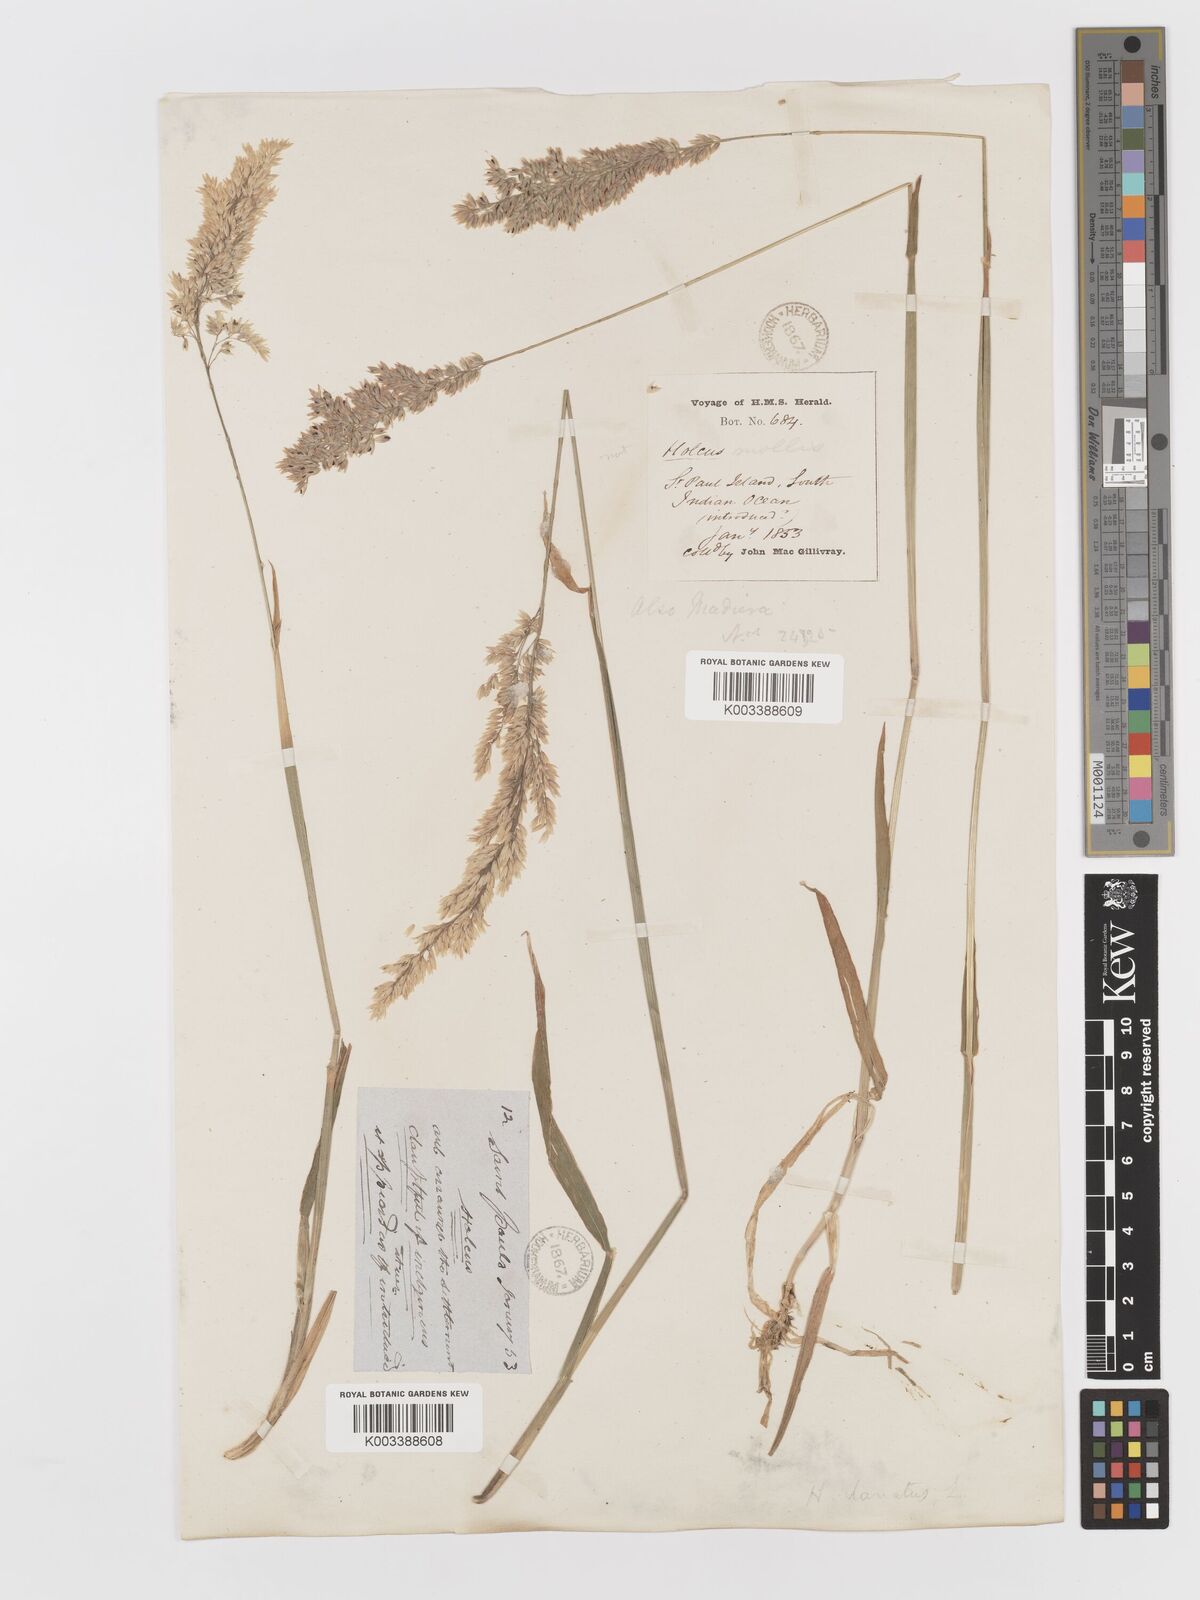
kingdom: Plantae
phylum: Tracheophyta
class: Liliopsida
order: Poales
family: Poaceae
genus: Holcus
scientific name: Holcus lanatus
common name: Yorkshire-fog
